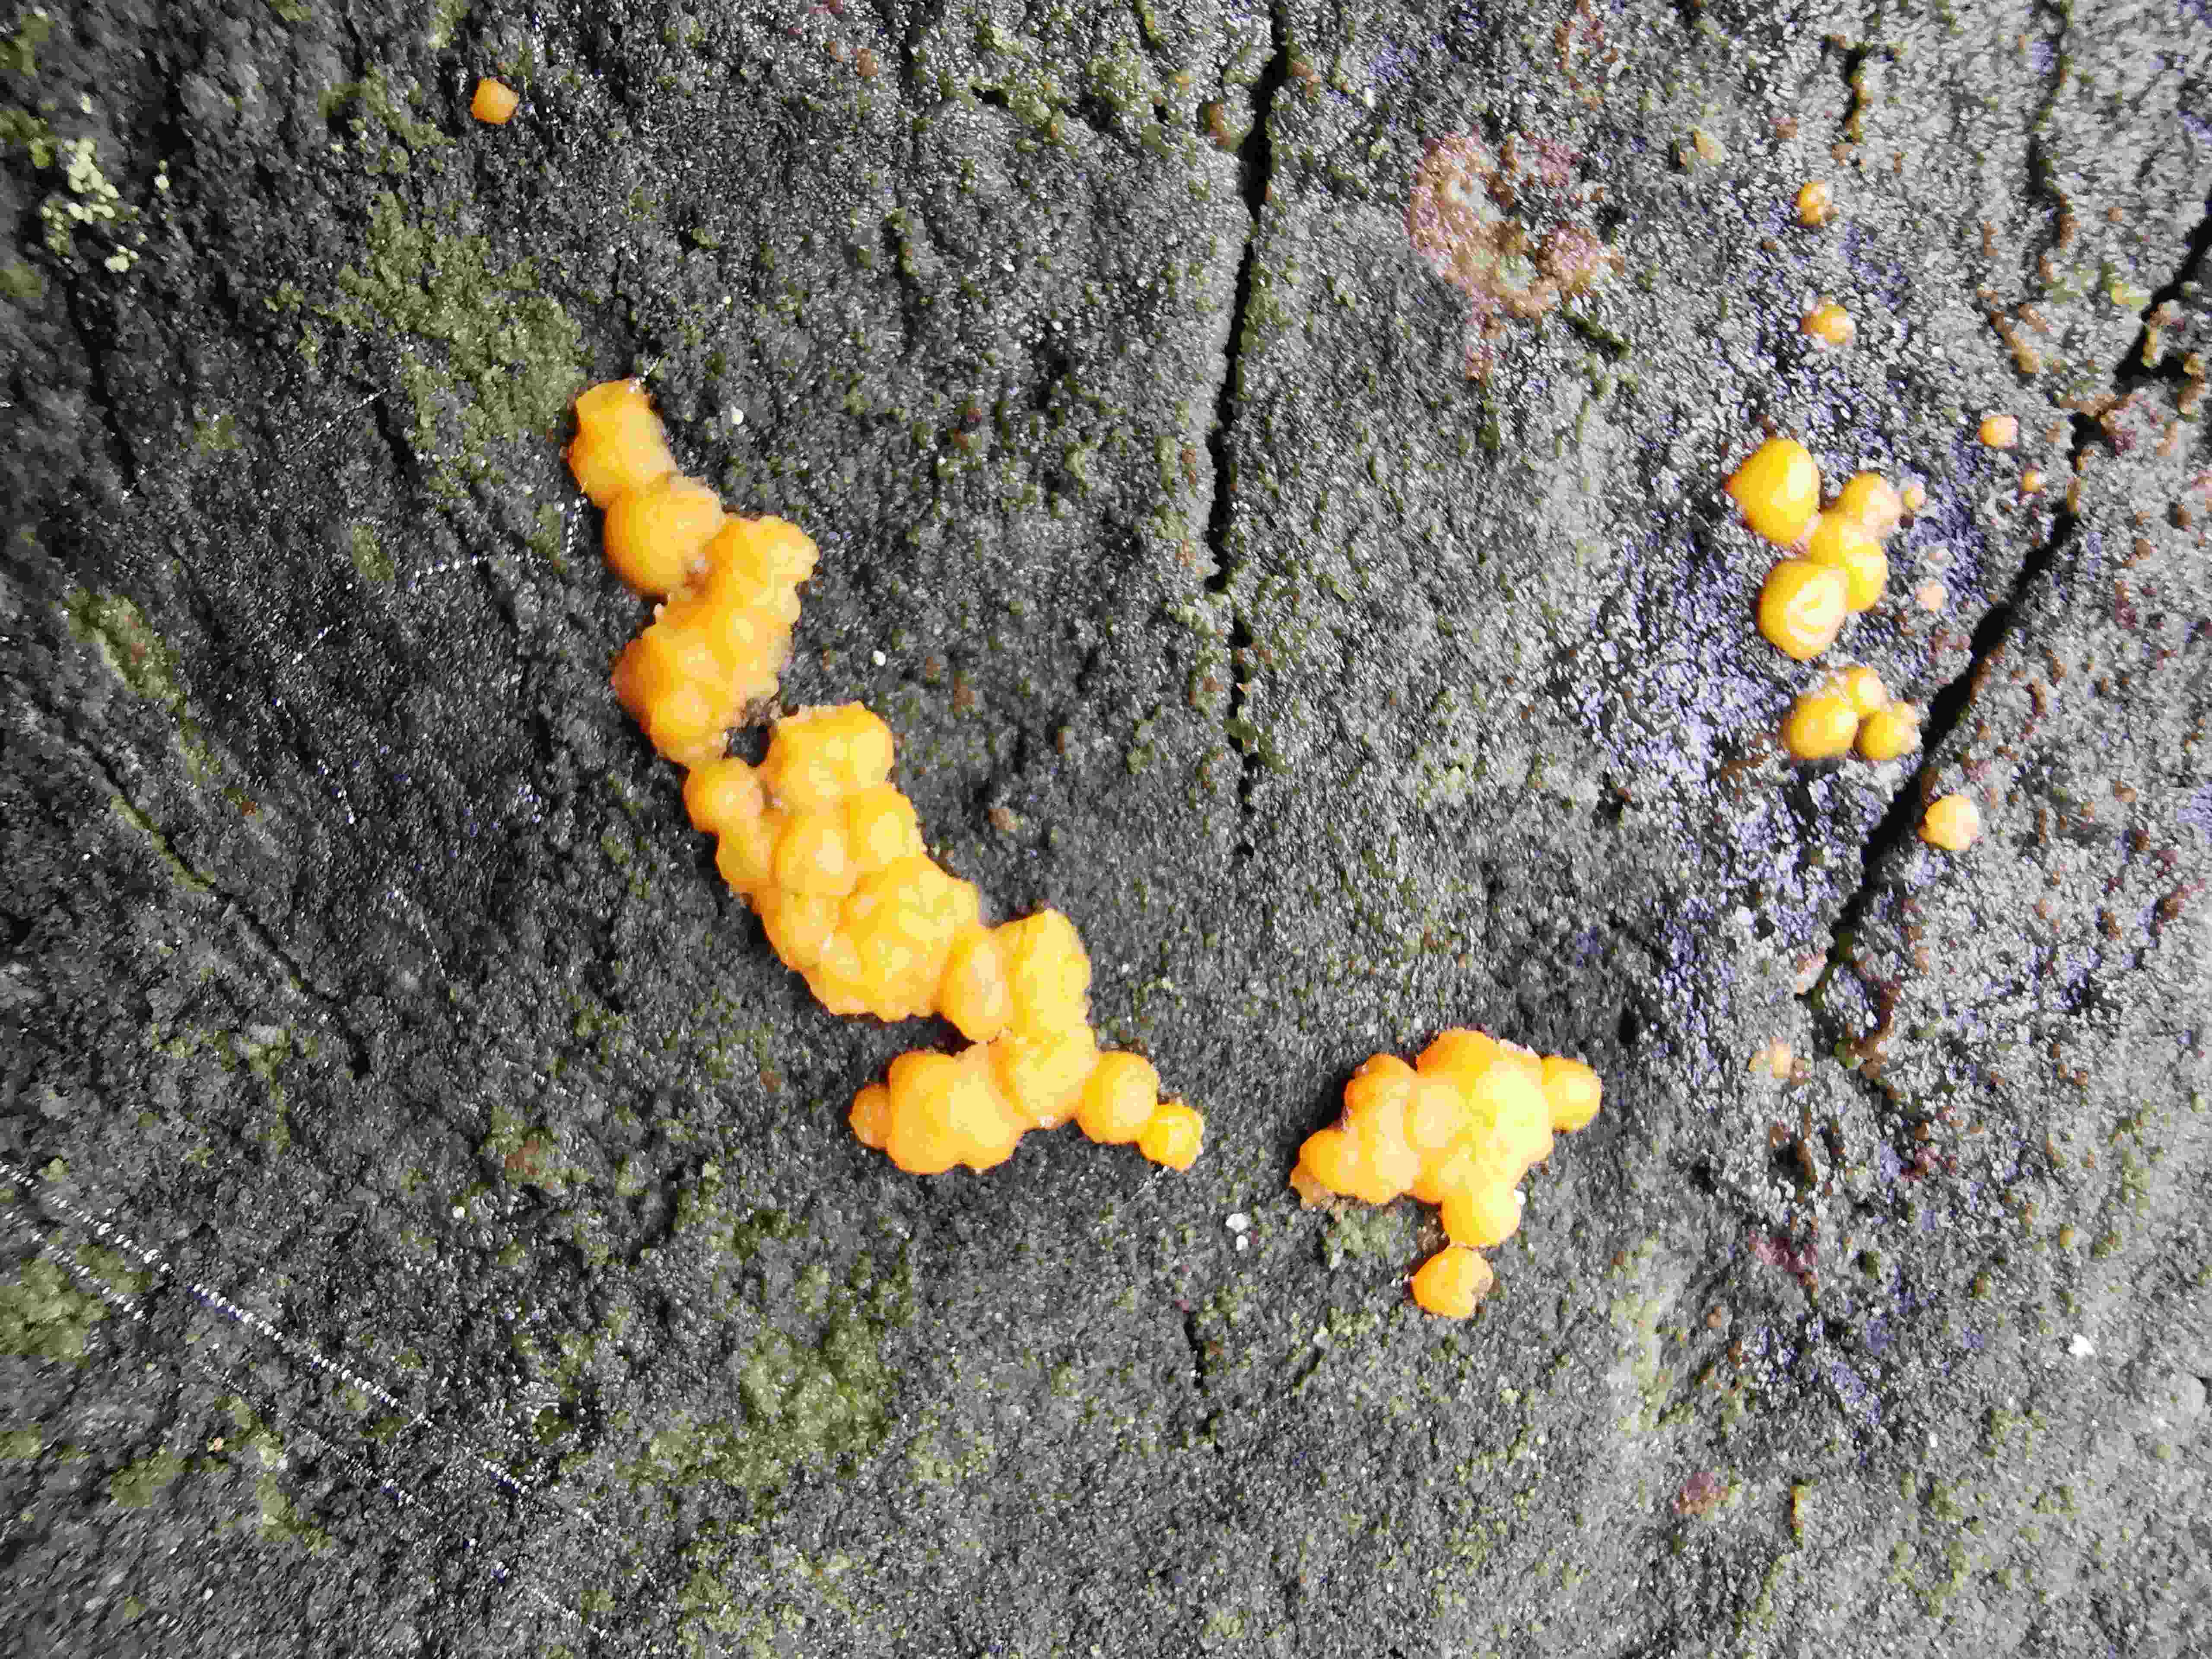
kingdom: Fungi
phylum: Basidiomycota
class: Dacrymycetes
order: Dacrymycetales
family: Dacrymycetaceae
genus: Dacrymyces
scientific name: Dacrymyces stillatus
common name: almindelig tåresvamp
